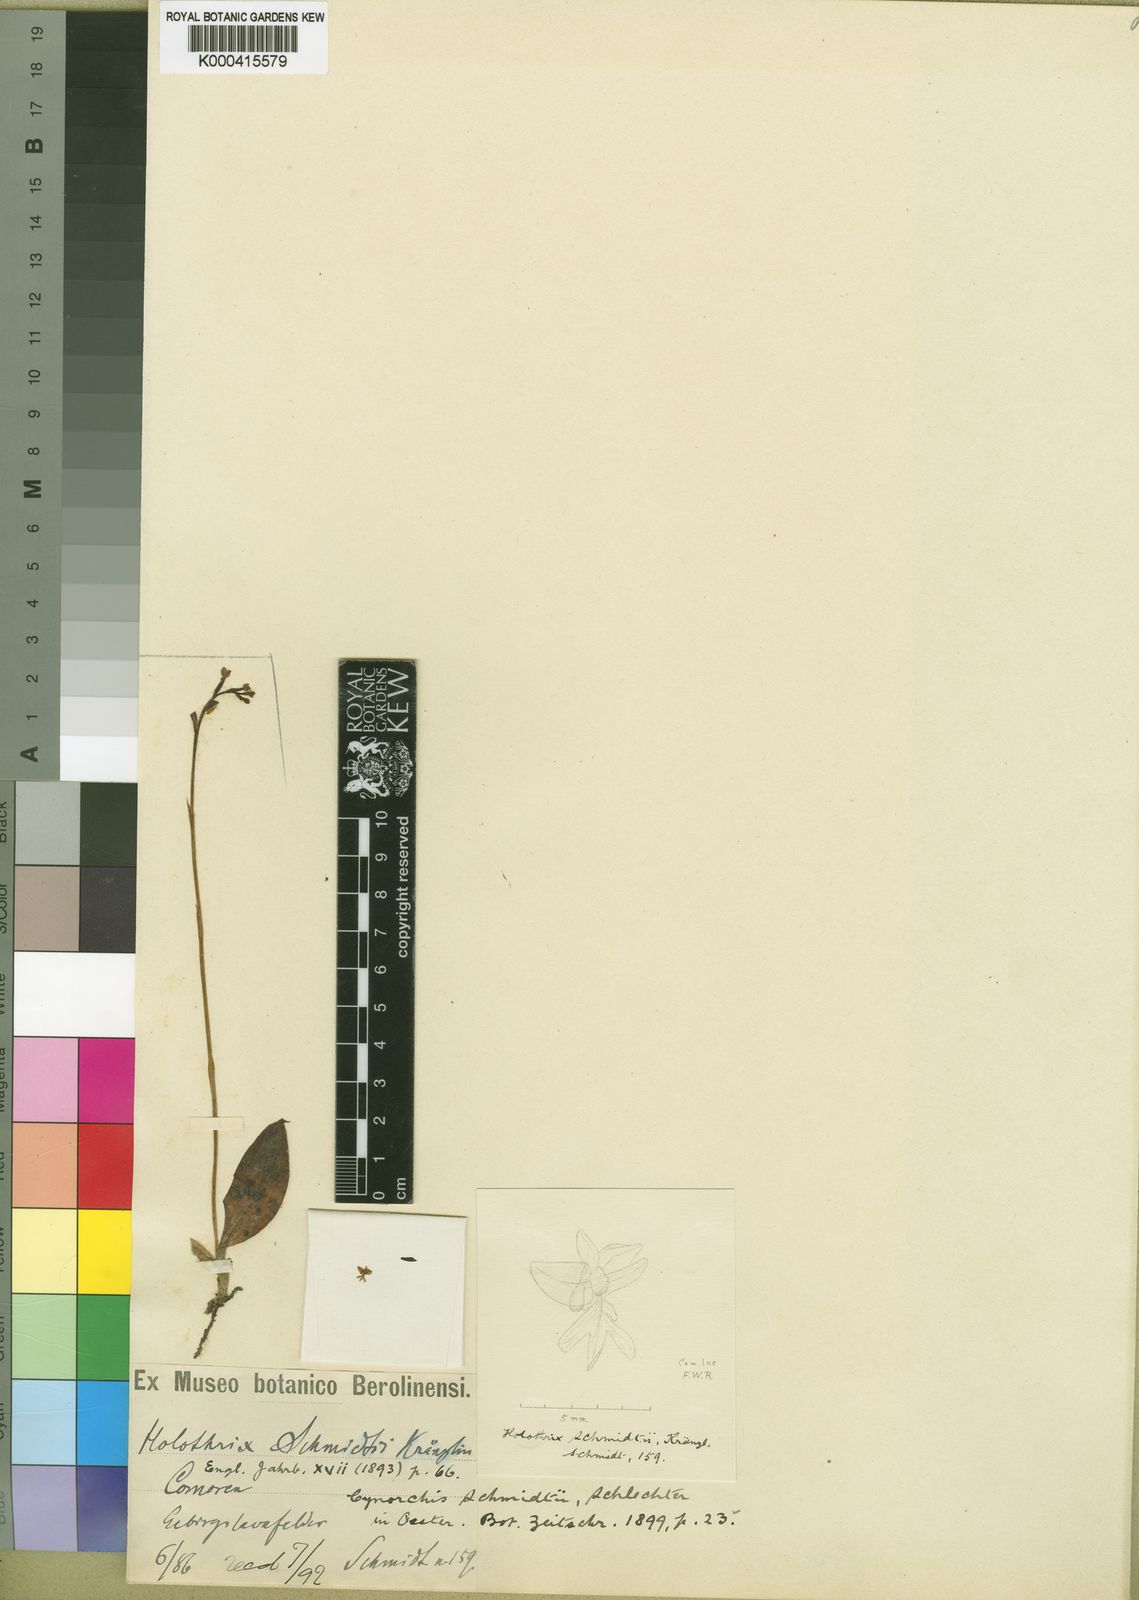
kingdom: Plantae
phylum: Tracheophyta
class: Liliopsida
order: Asparagales
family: Orchidaceae
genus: Cynorkis
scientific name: Cynorkis schmidtii
